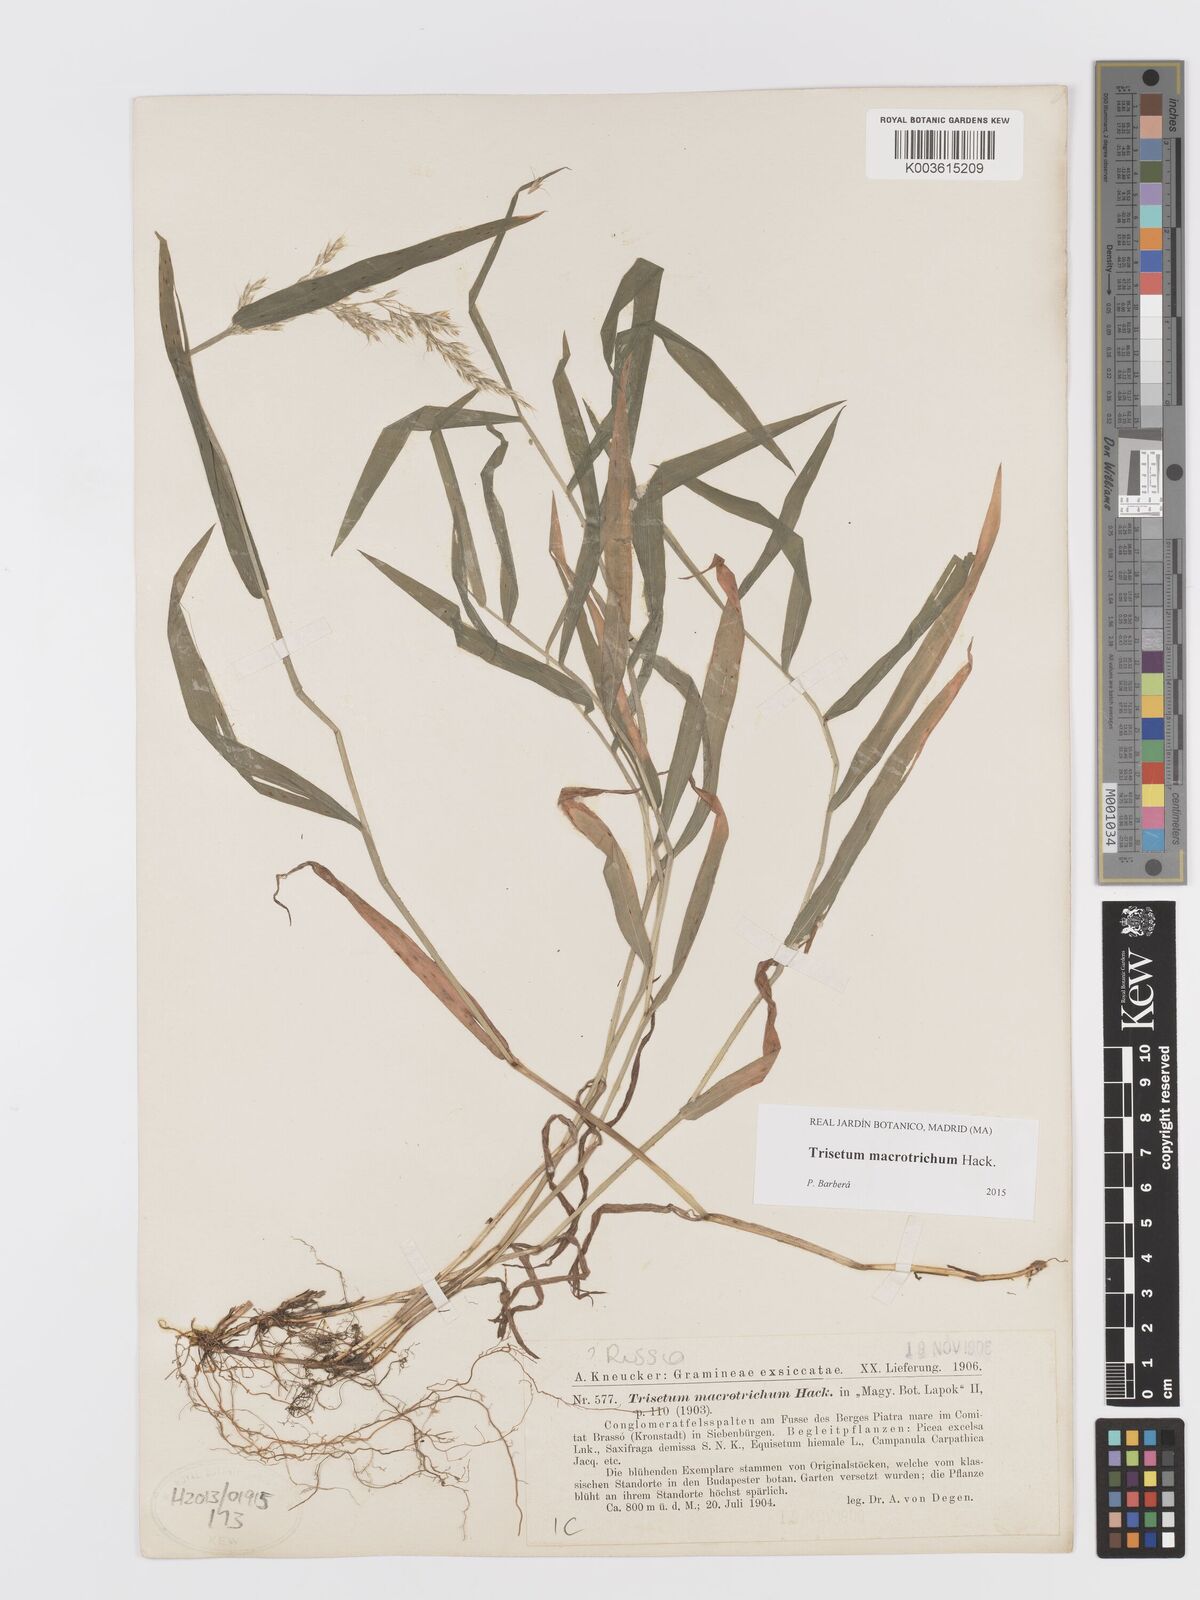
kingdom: Plantae
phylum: Tracheophyta
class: Liliopsida
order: Poales
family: Poaceae
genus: Trisetum
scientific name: Trisetum macrotrichum
